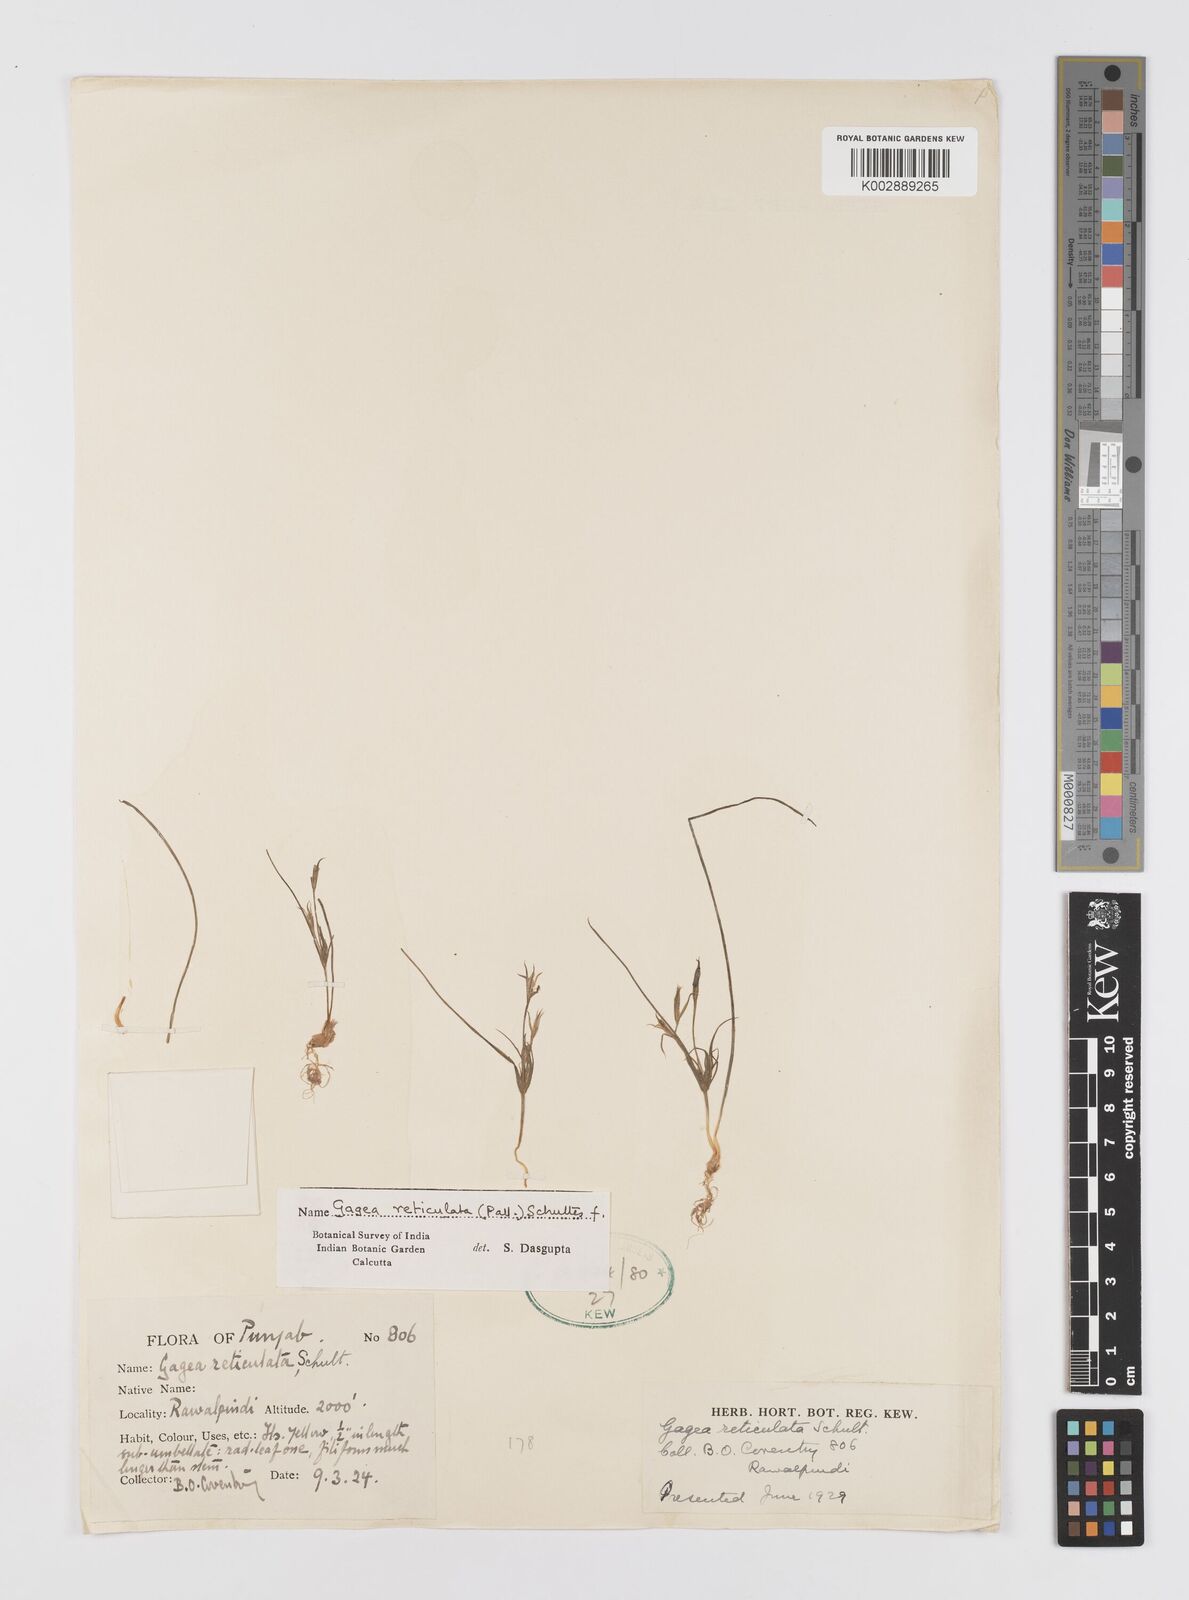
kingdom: Plantae
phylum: Tracheophyta
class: Liliopsida
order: Liliales
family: Liliaceae
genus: Gagea
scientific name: Gagea reticulata
